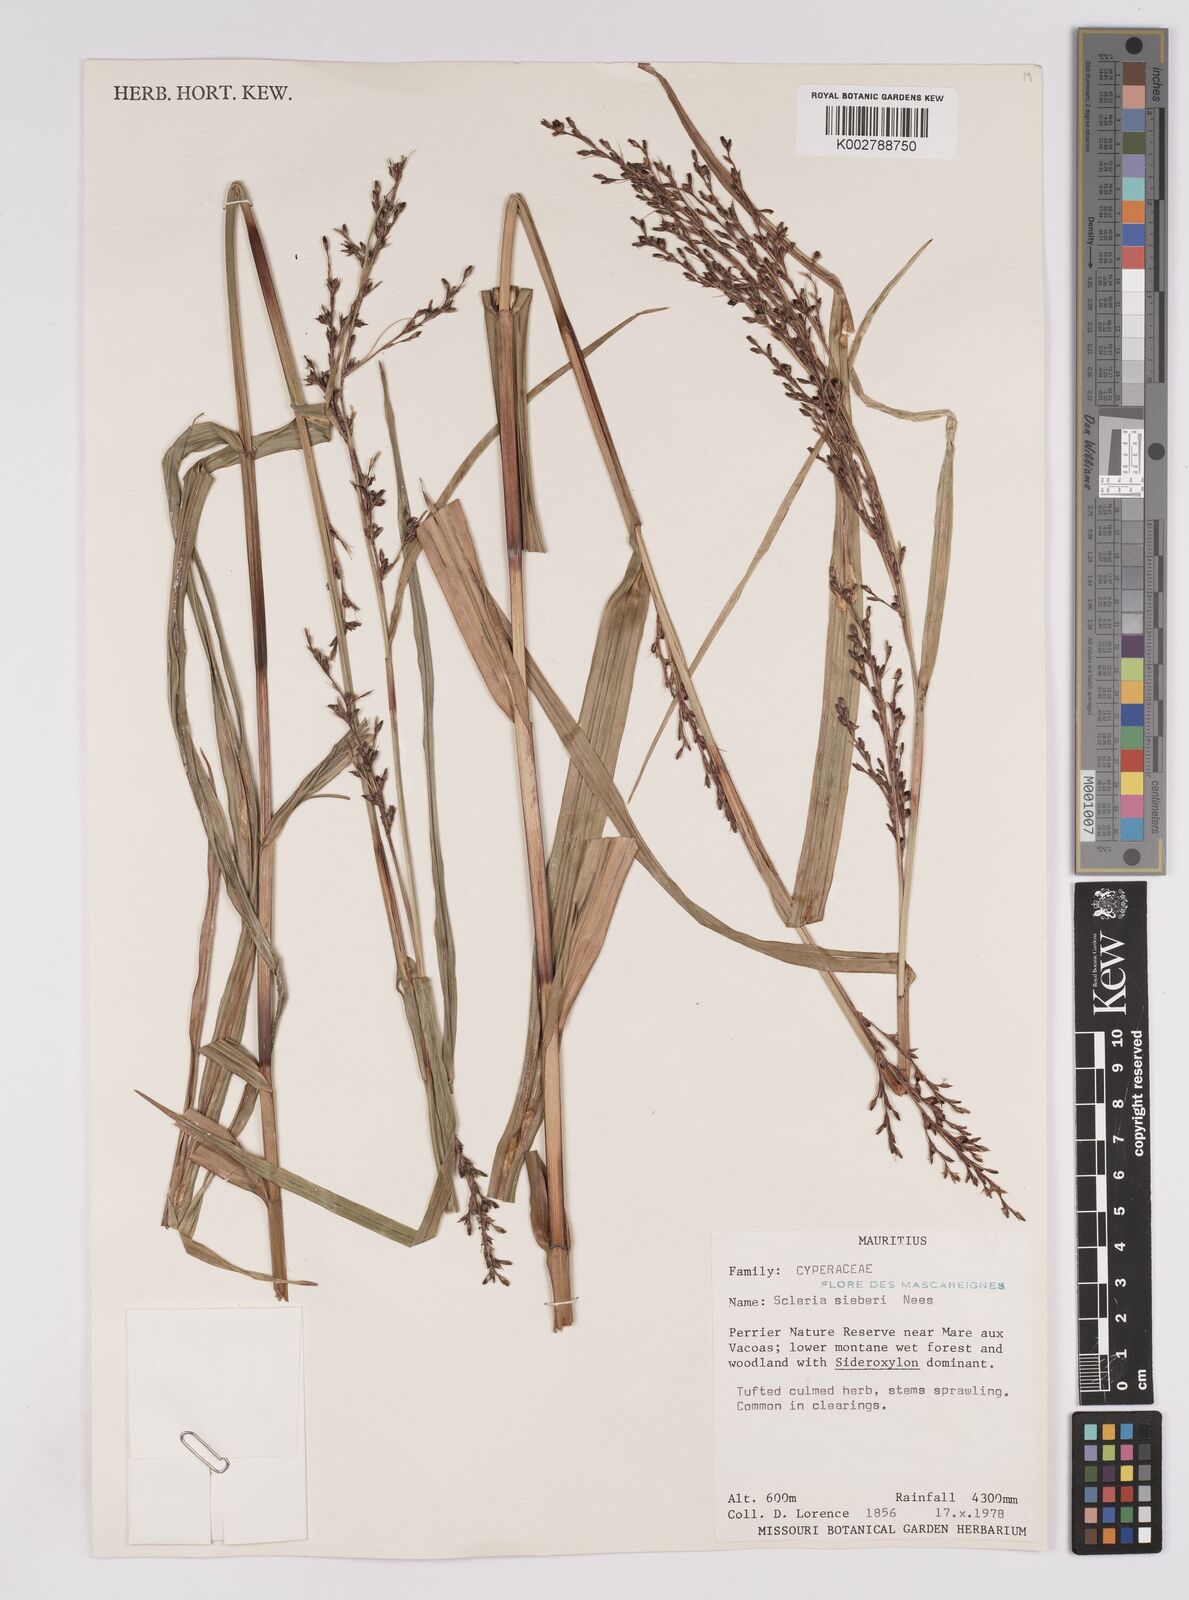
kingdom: Plantae
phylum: Tracheophyta
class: Liliopsida
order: Poales
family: Cyperaceae
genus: Scleria
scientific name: Scleria gaertneri
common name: Cortadera blanca
